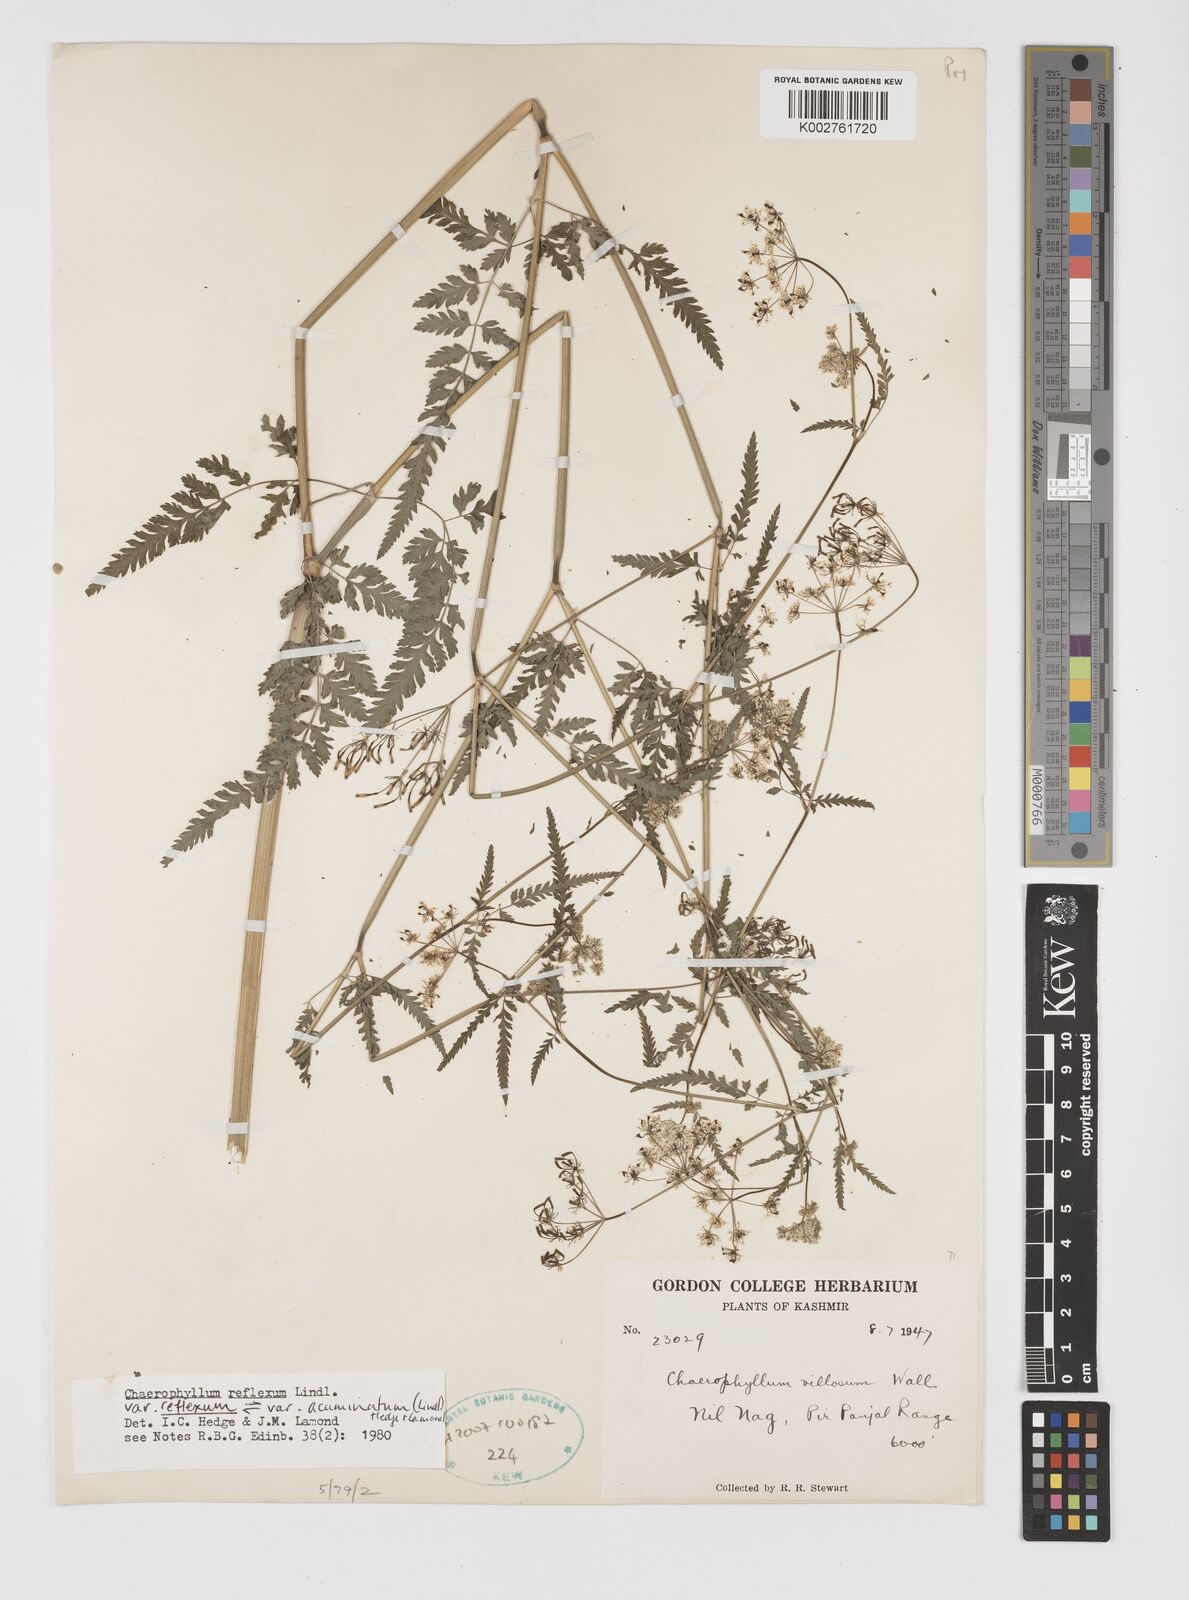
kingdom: Plantae
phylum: Tracheophyta
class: Magnoliopsida
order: Apiales
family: Apiaceae
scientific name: Apiaceae
